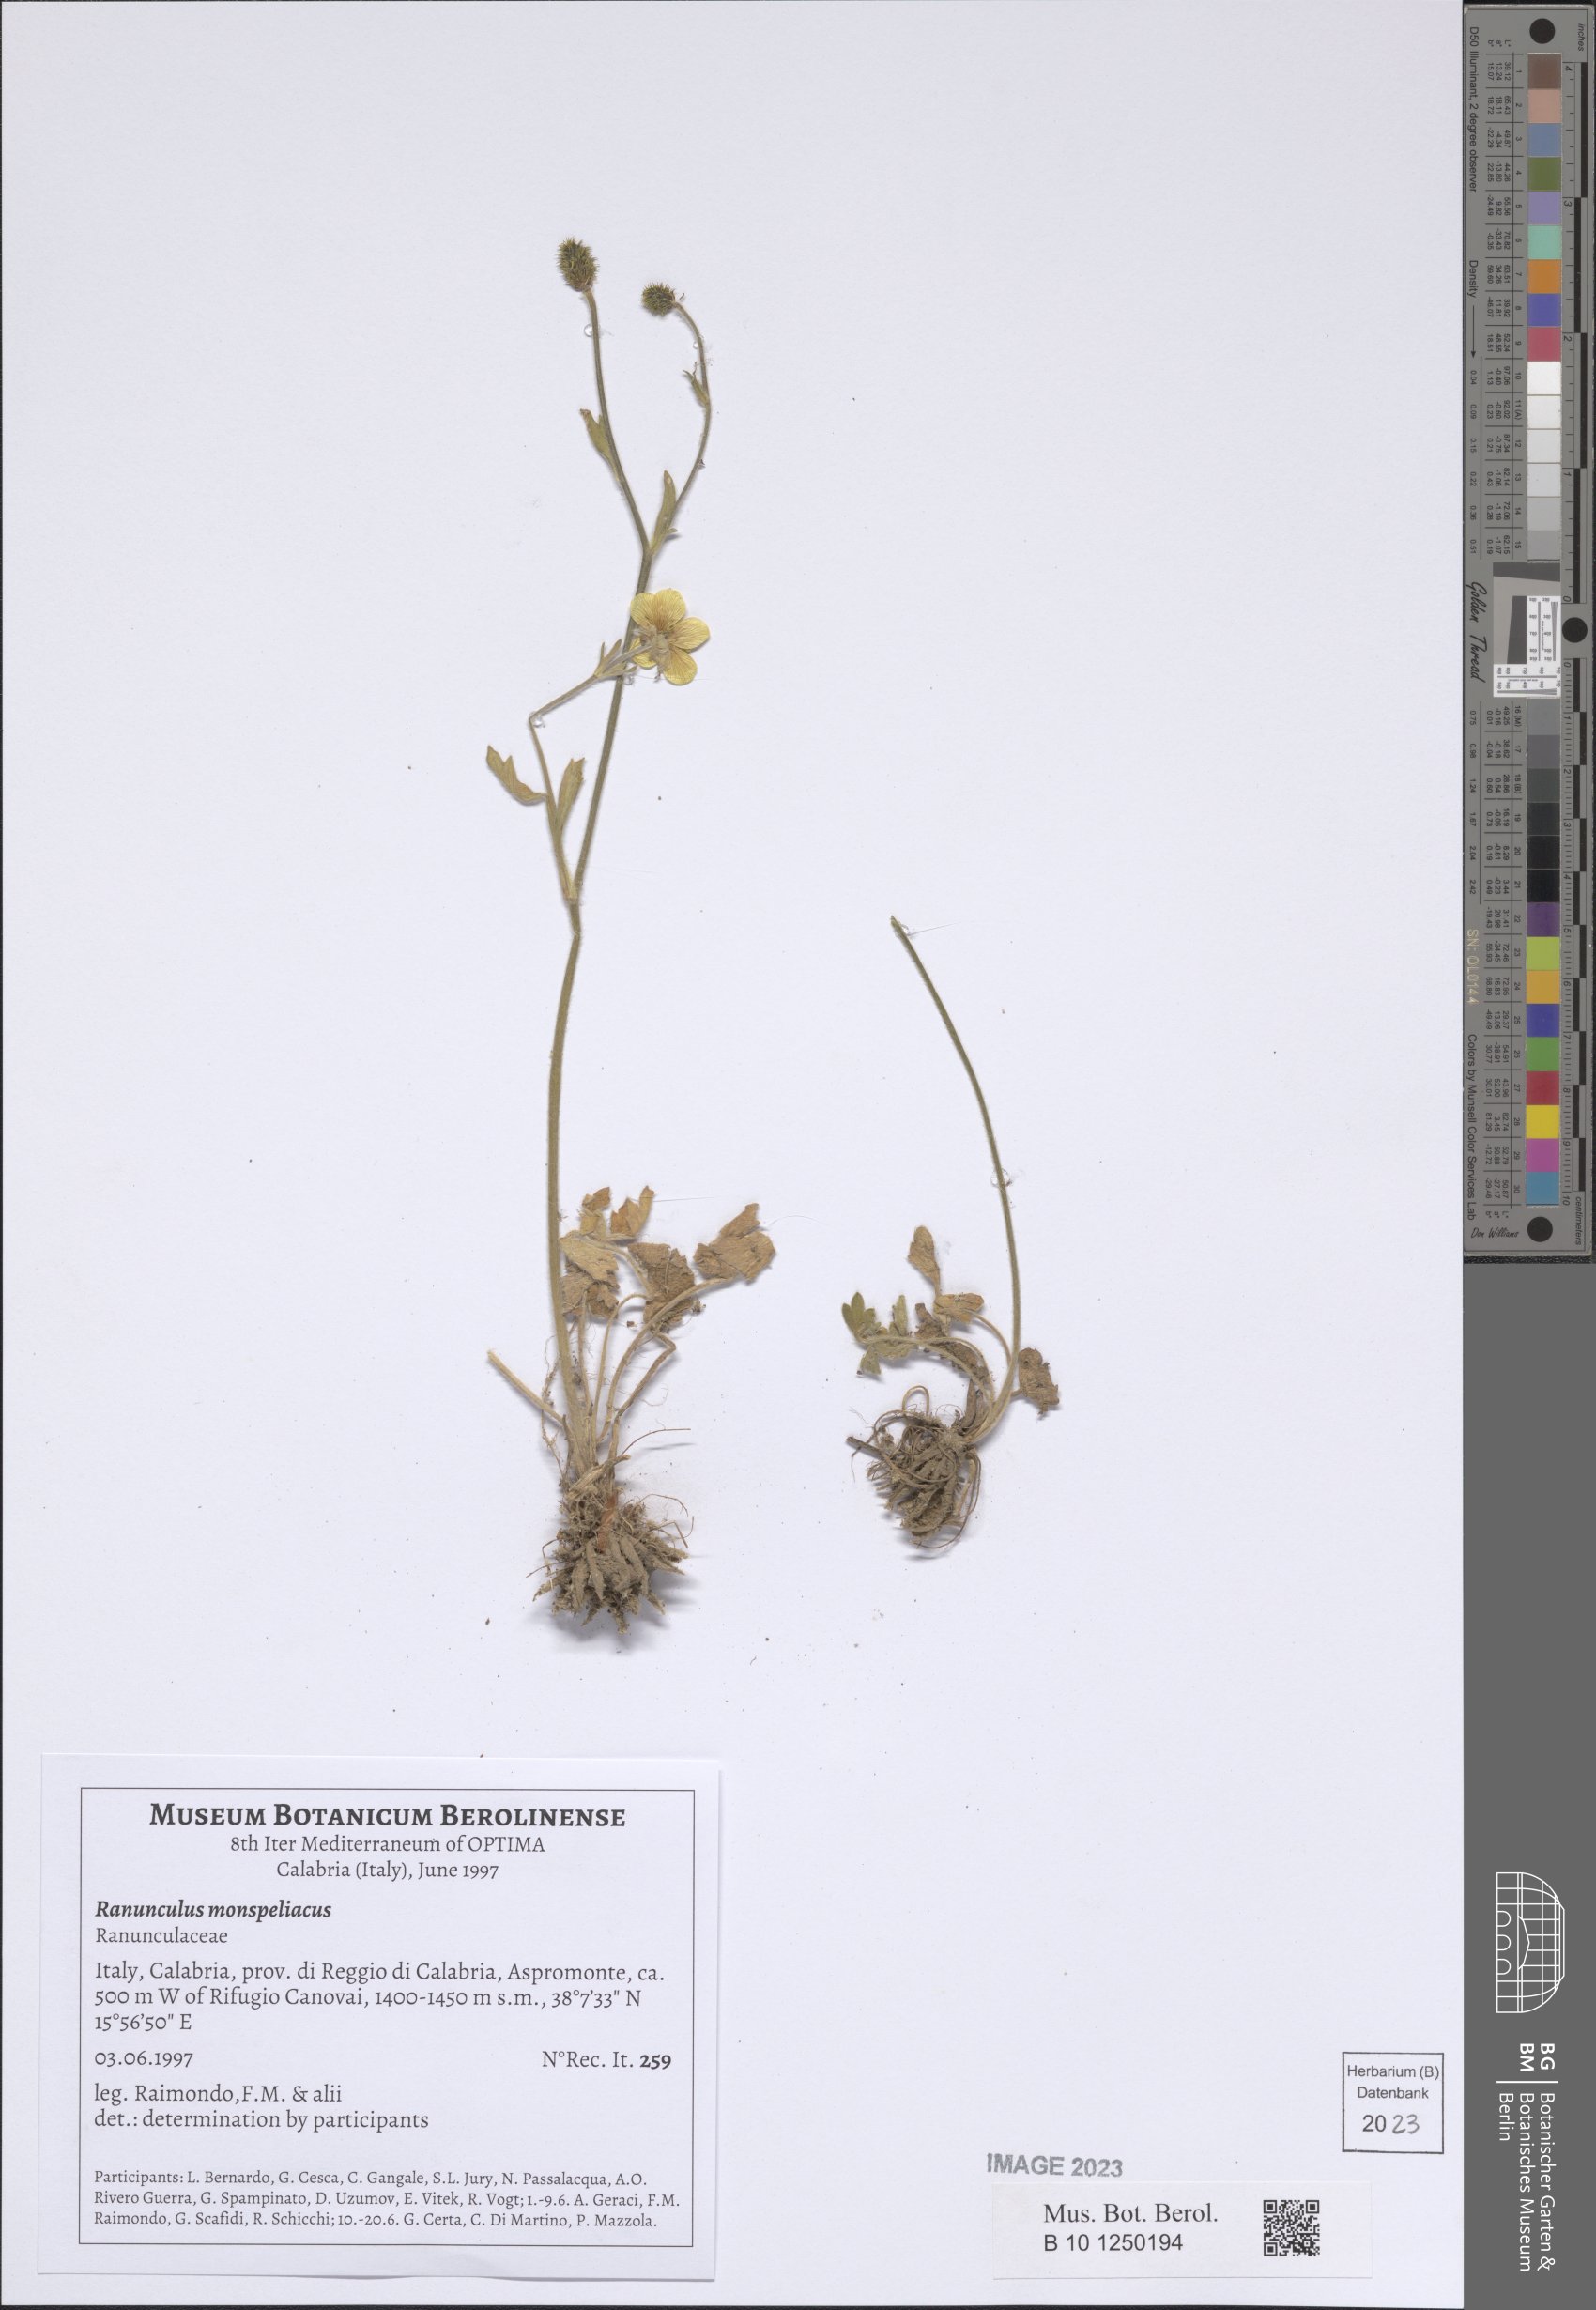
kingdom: Plantae
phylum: Tracheophyta
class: Magnoliopsida
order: Ranunculales
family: Ranunculaceae
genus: Ranunculus
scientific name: Ranunculus monspeliacus
